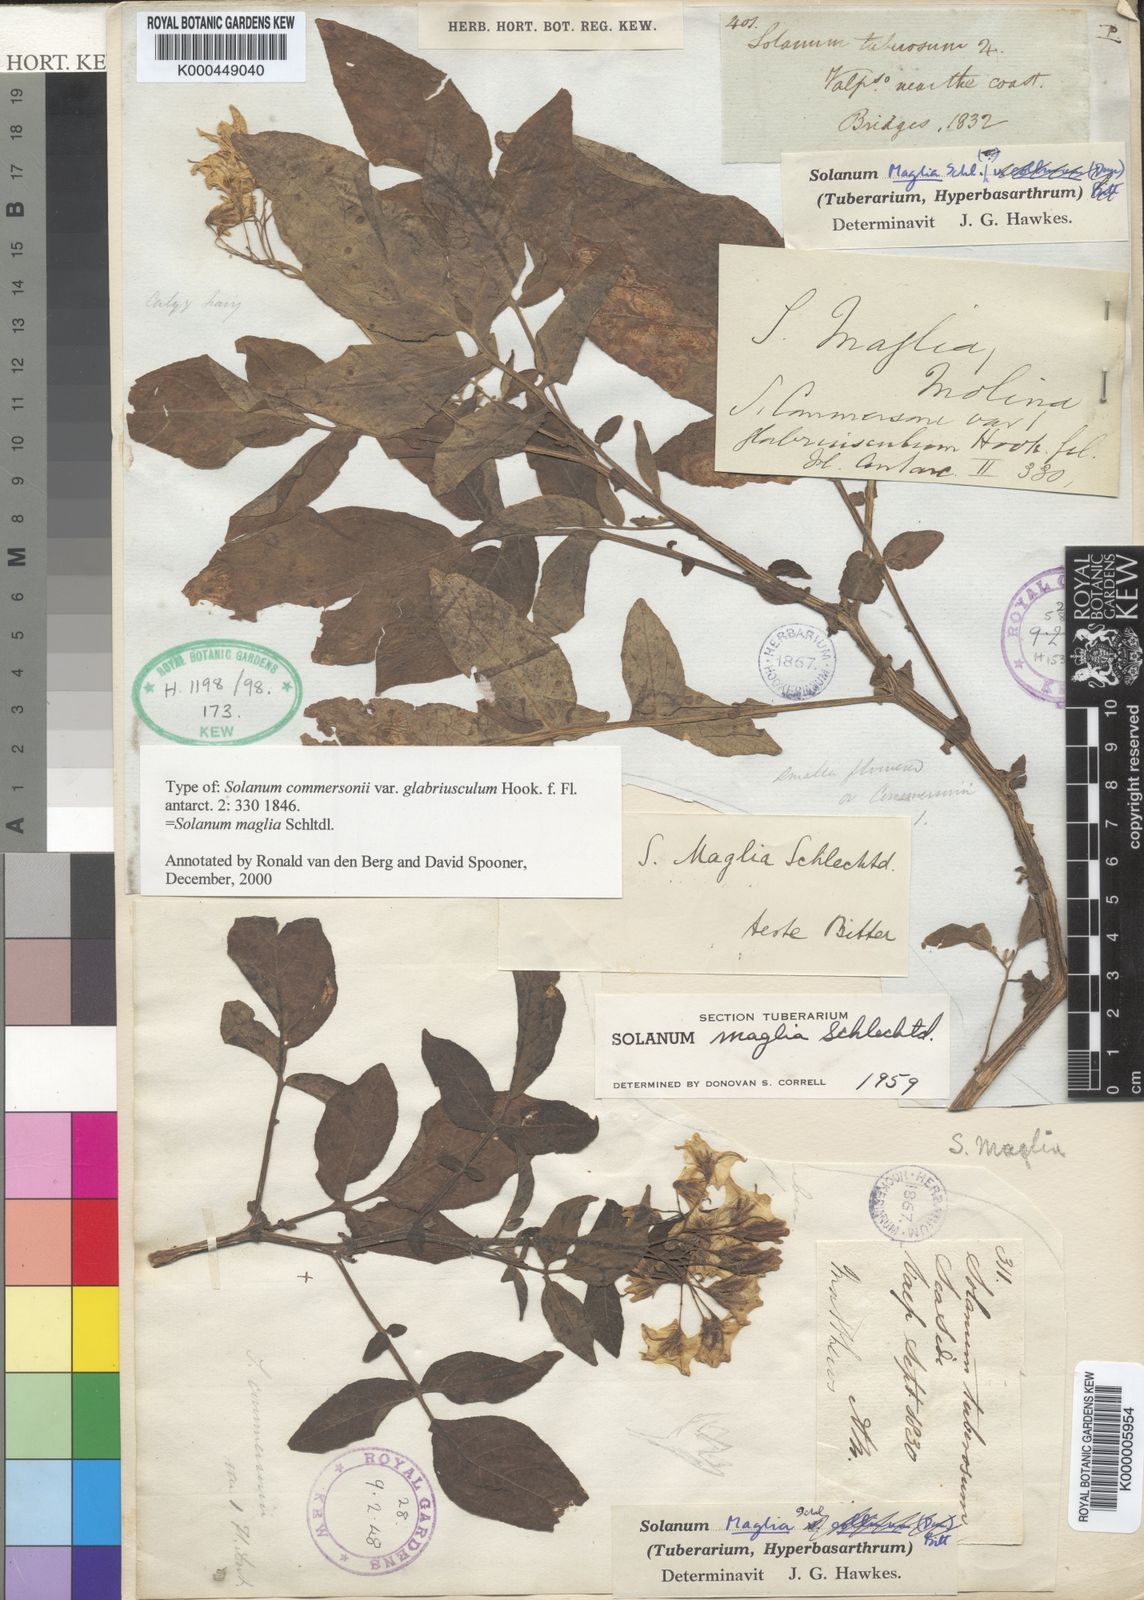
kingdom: Plantae
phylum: Tracheophyta
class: Magnoliopsida
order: Solanales
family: Solanaceae
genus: Solanum
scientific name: Solanum maglia
